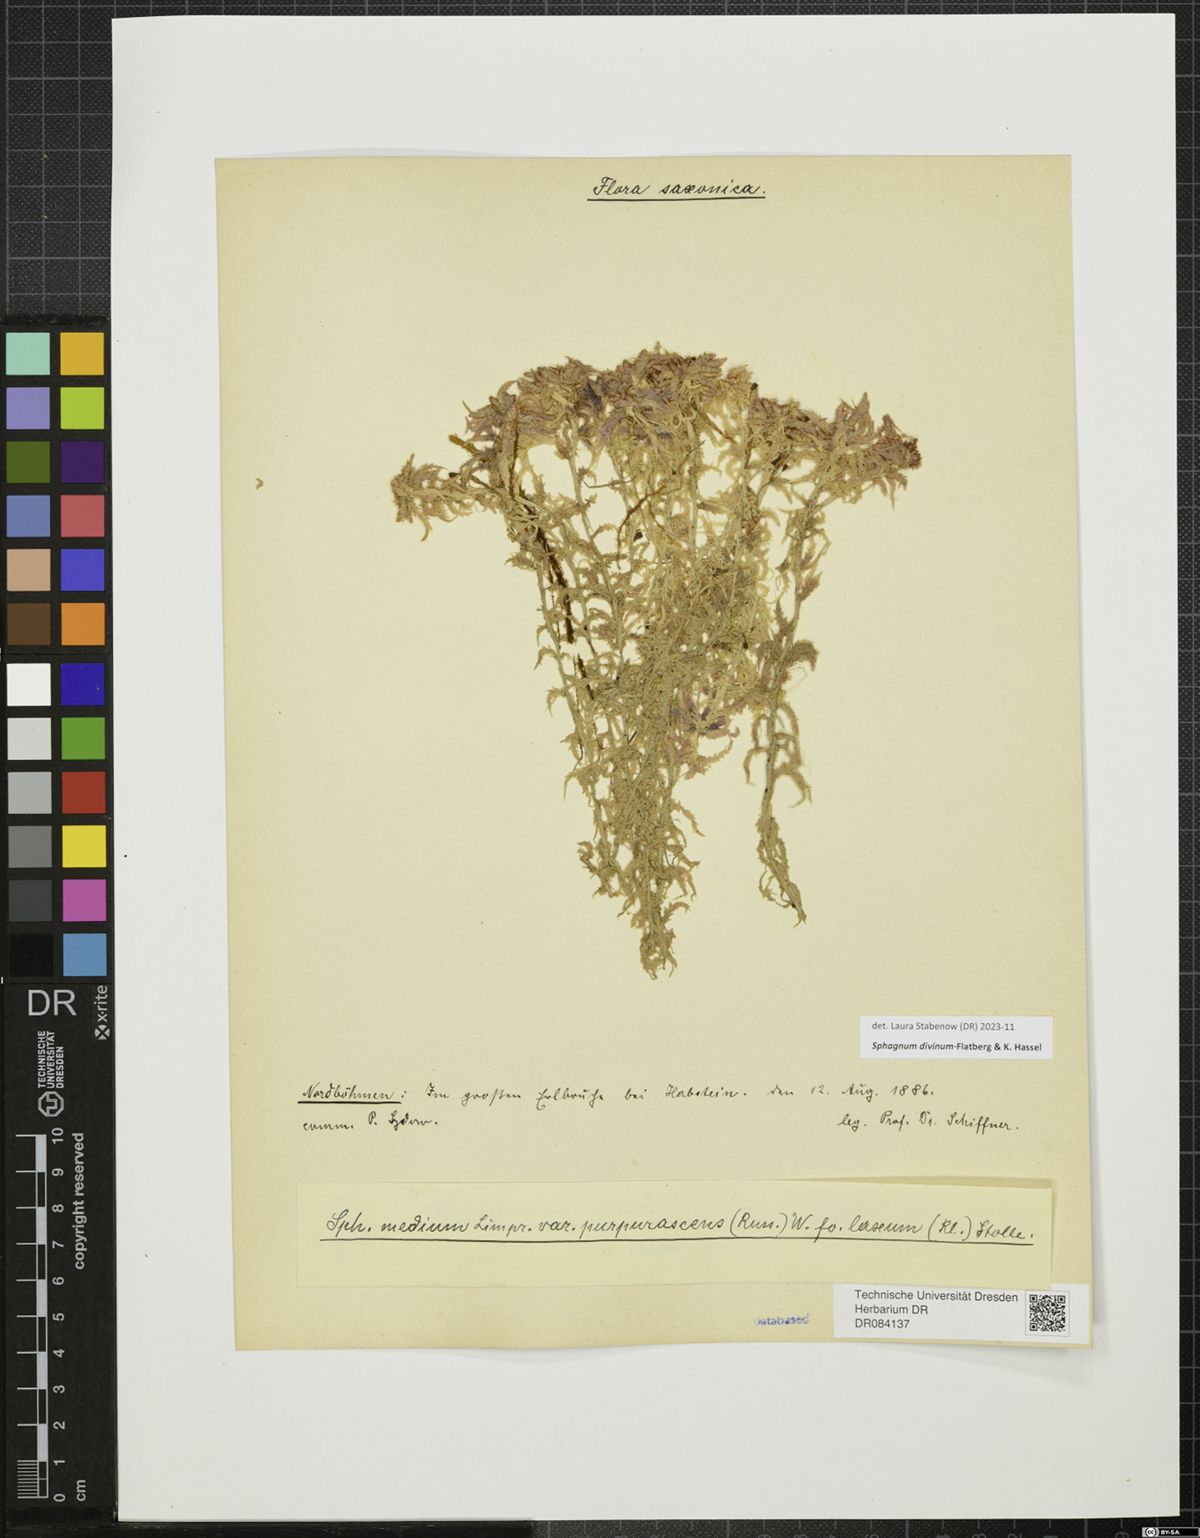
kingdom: Plantae
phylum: Bryophyta
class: Sphagnopsida
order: Sphagnales
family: Sphagnaceae
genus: Sphagnum
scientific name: Sphagnum divinum
